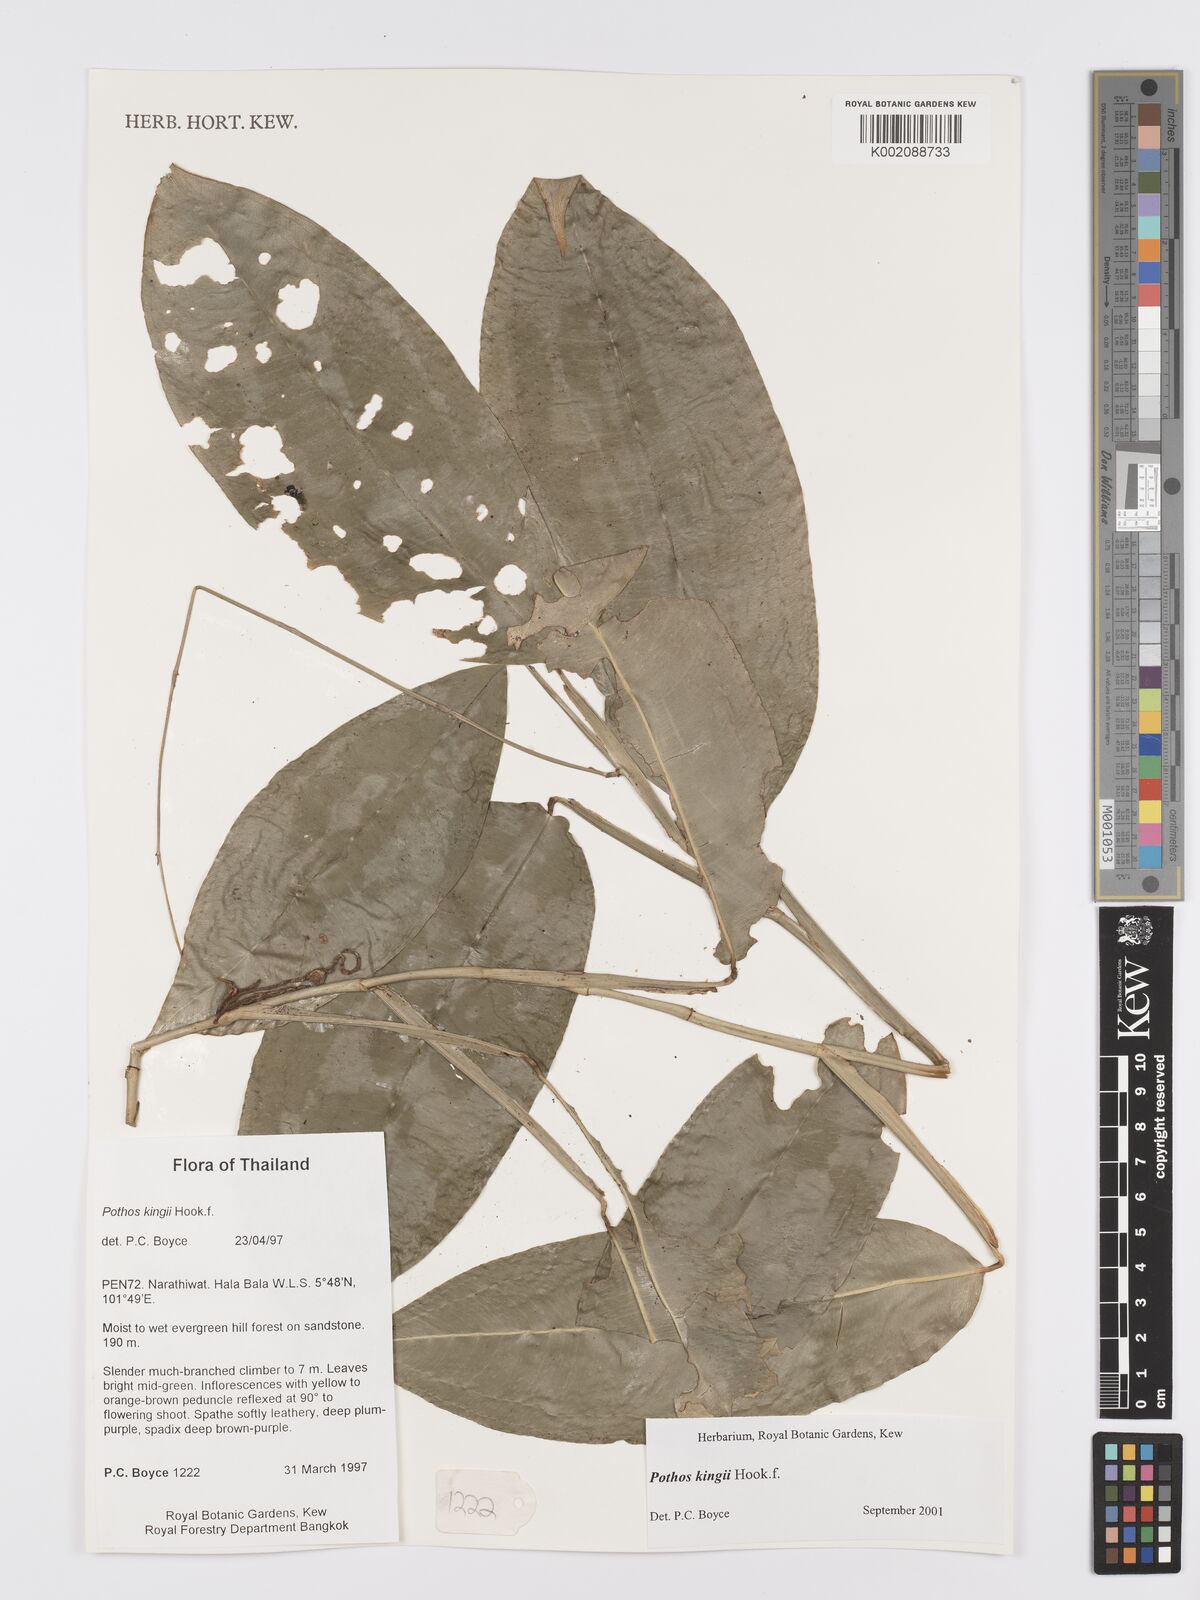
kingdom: Plantae
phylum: Tracheophyta
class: Liliopsida
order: Alismatales
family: Araceae
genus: Pothos
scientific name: Pothos kingii
